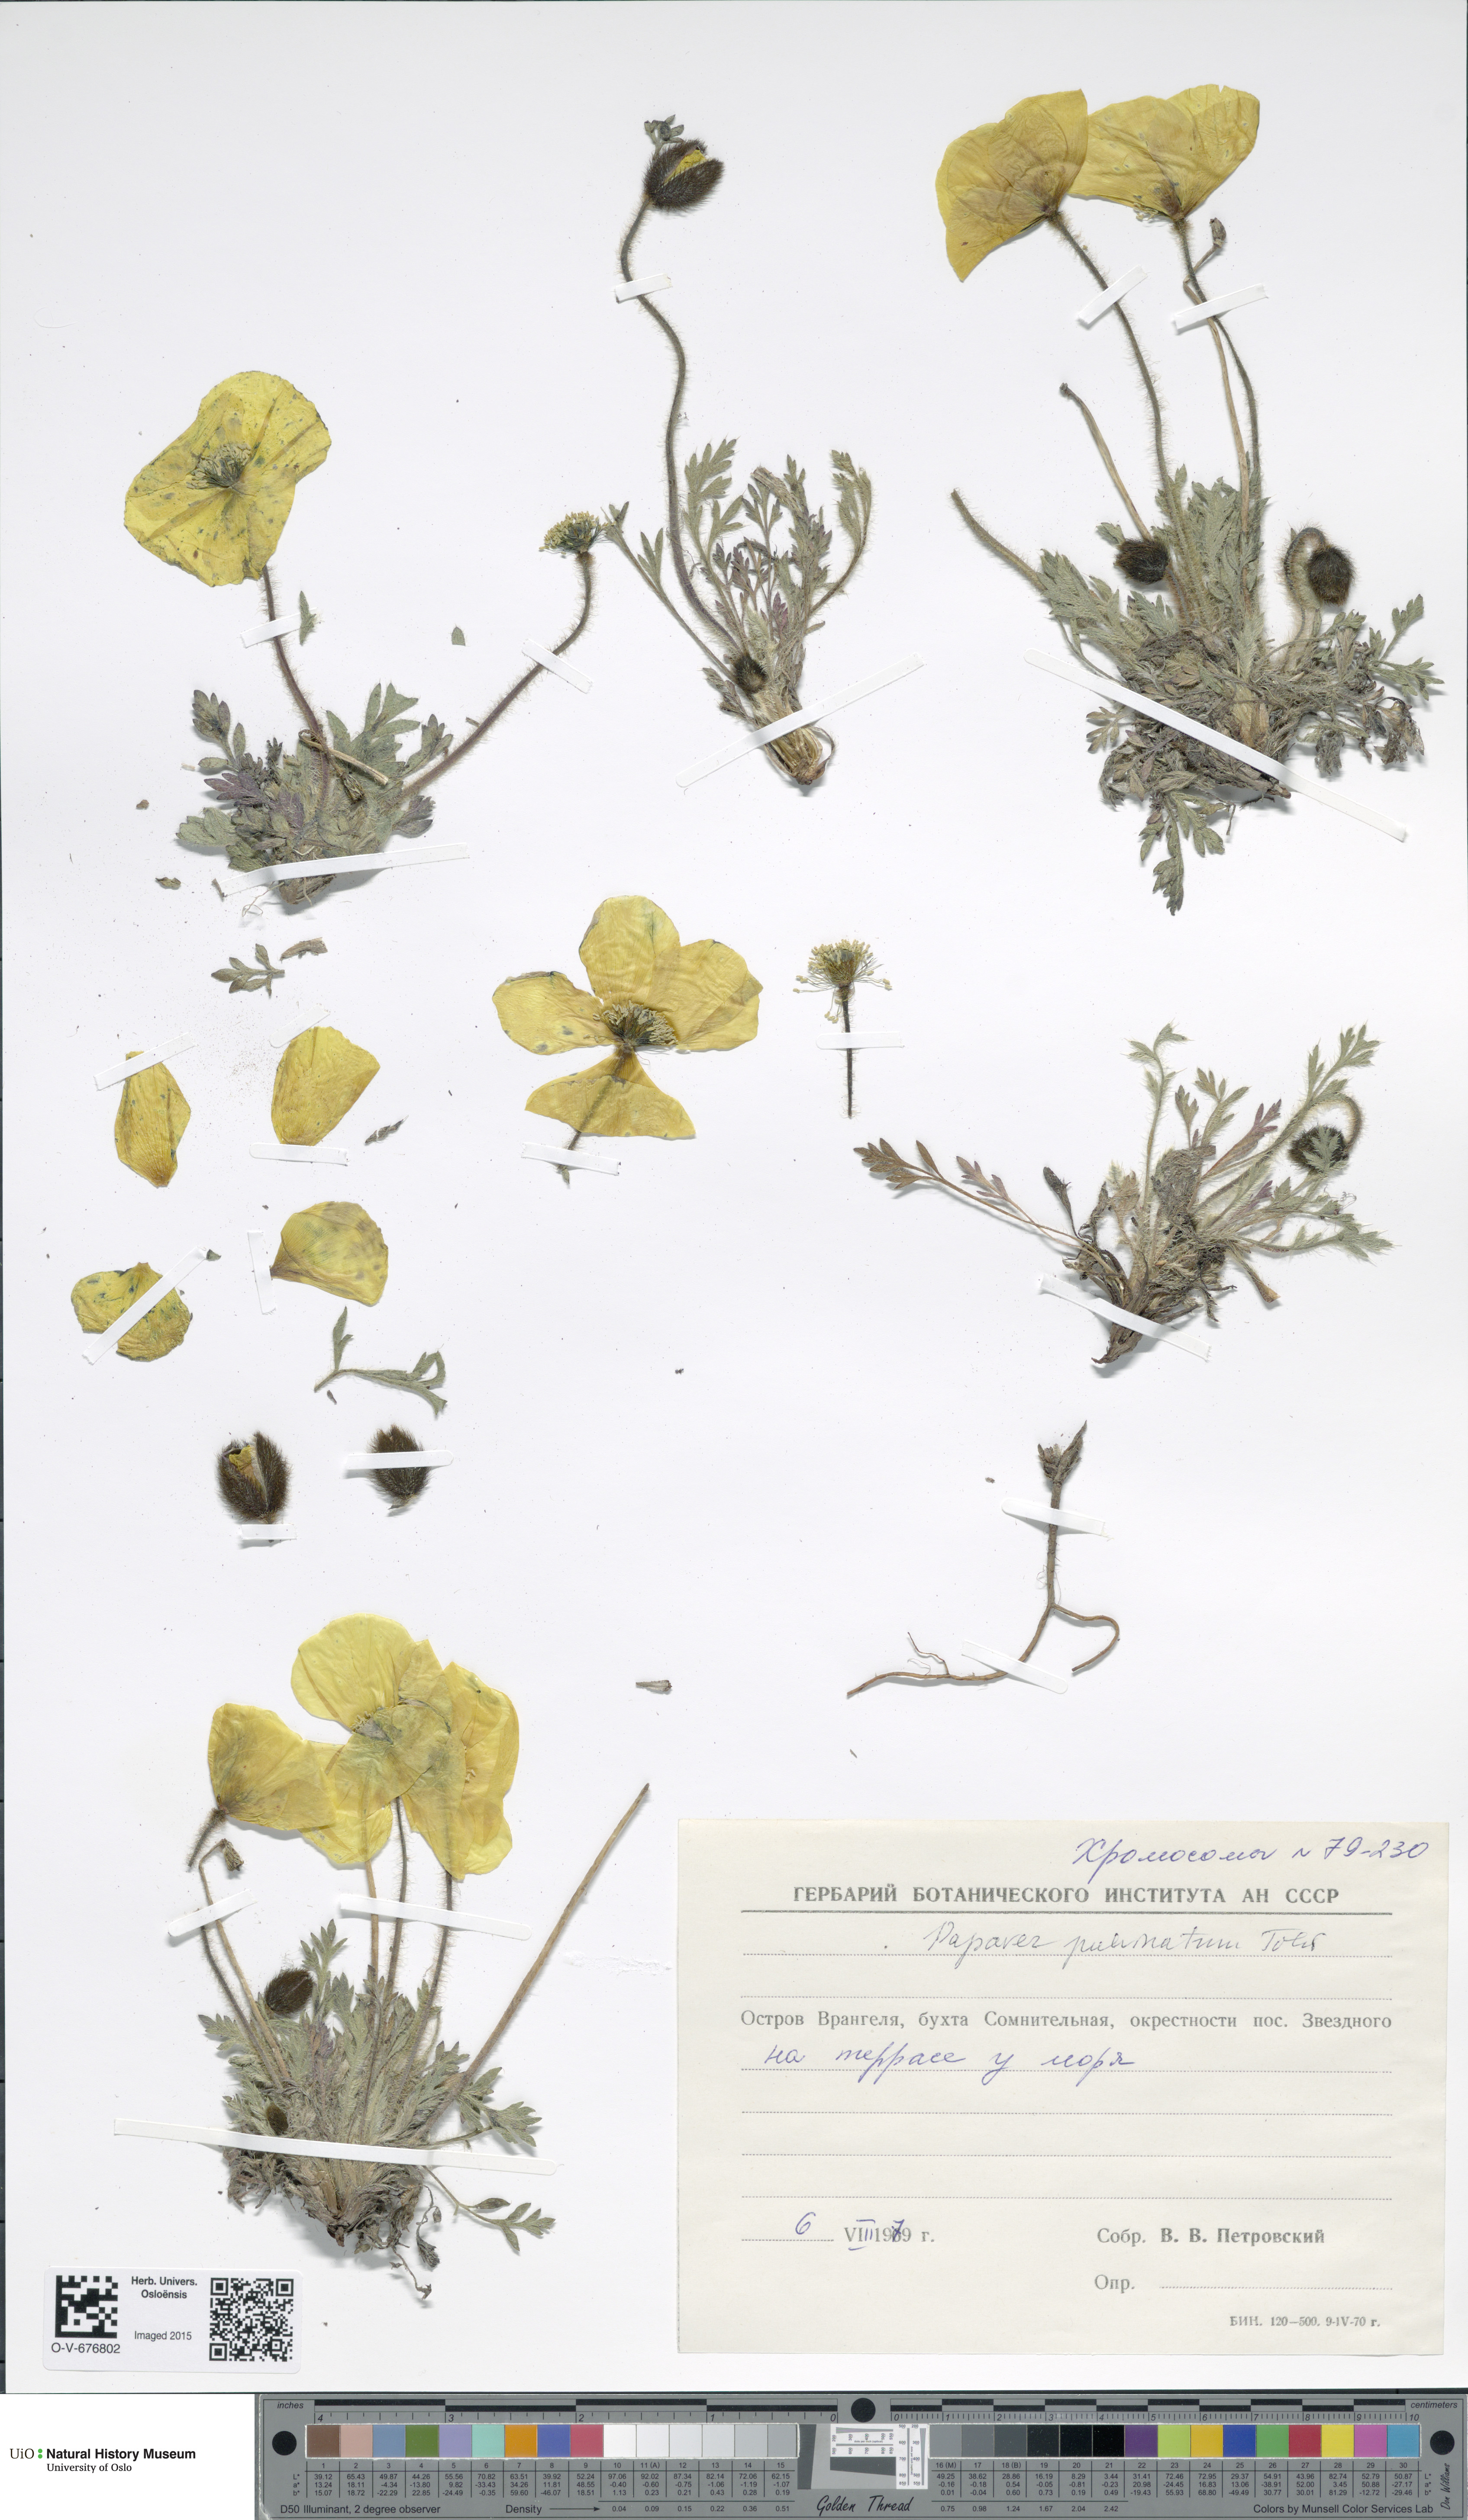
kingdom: Plantae
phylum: Tracheophyta
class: Magnoliopsida
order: Ranunculales
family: Papaveraceae
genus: Papaver
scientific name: Papaver pulvinatum
